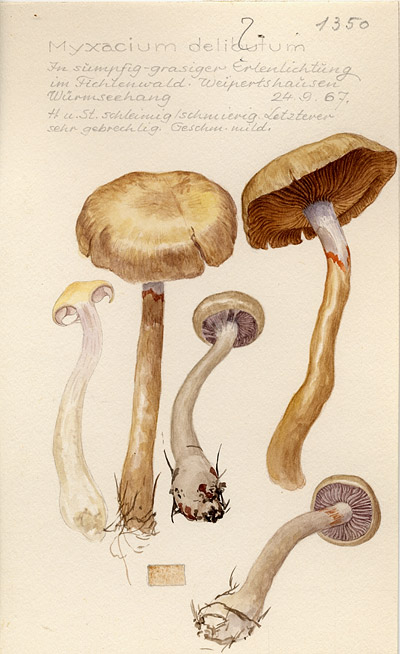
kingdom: Fungi
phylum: Basidiomycota
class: Agaricomycetes
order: Agaricales
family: Cortinariaceae
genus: Cortinarius
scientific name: Cortinarius delibutus
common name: Yellow webcap
